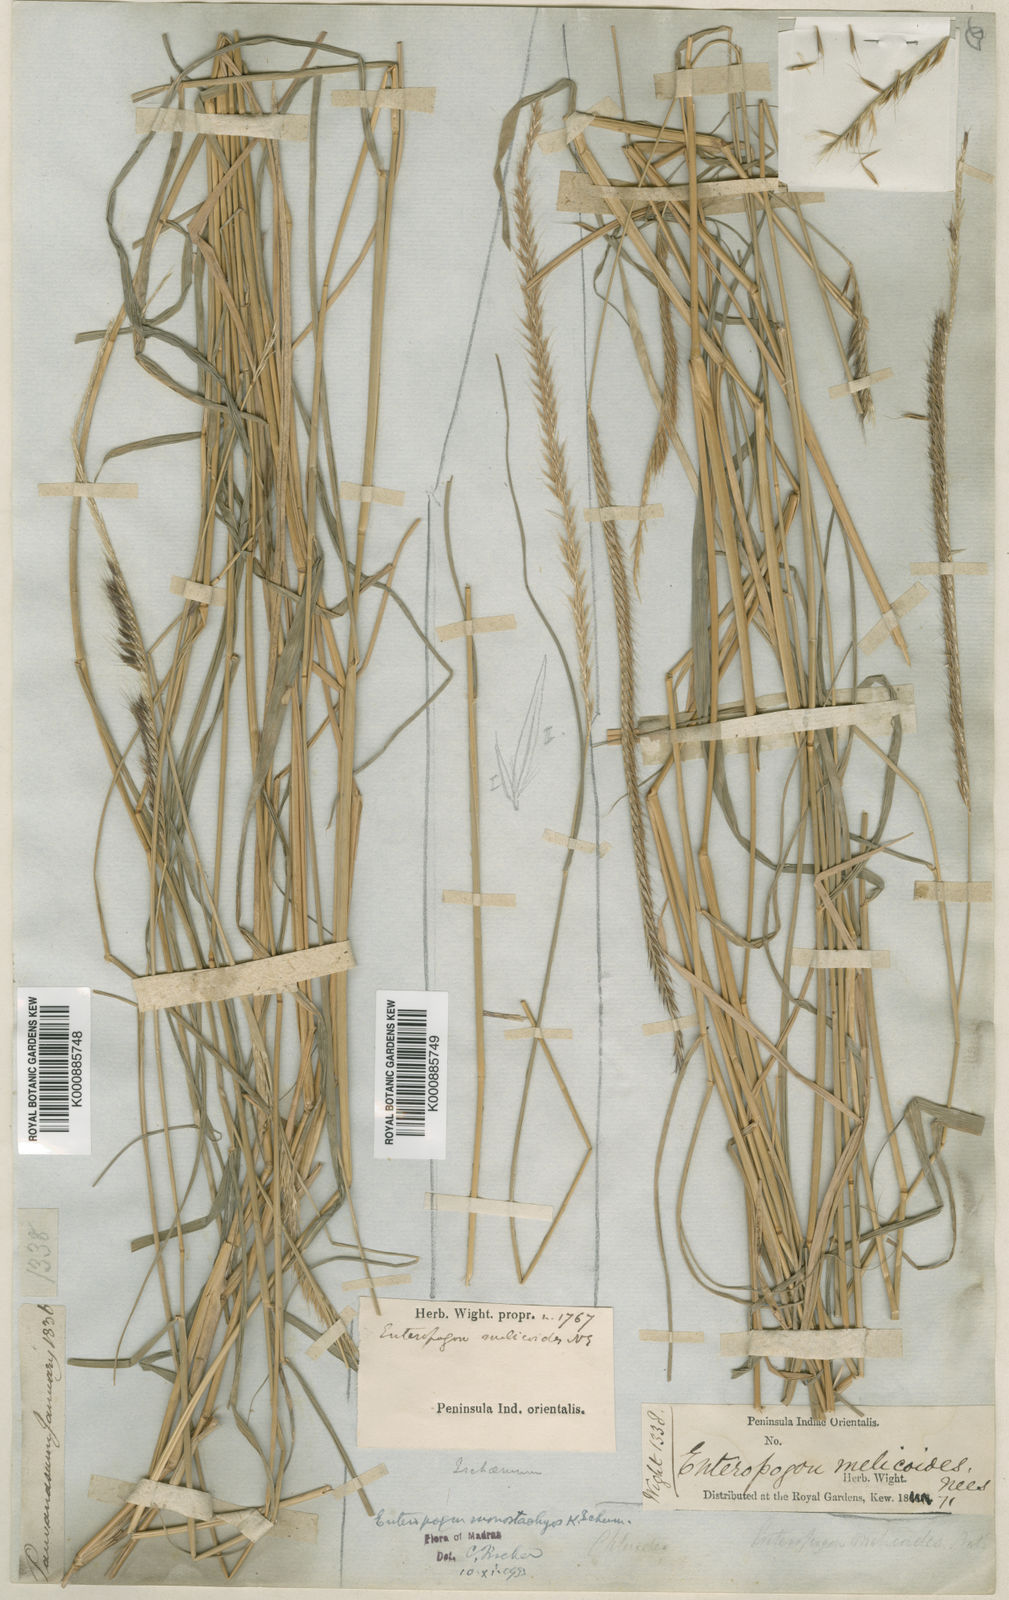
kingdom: Plantae
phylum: Tracheophyta
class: Liliopsida
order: Poales
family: Poaceae
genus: Enteropogon
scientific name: Enteropogon
